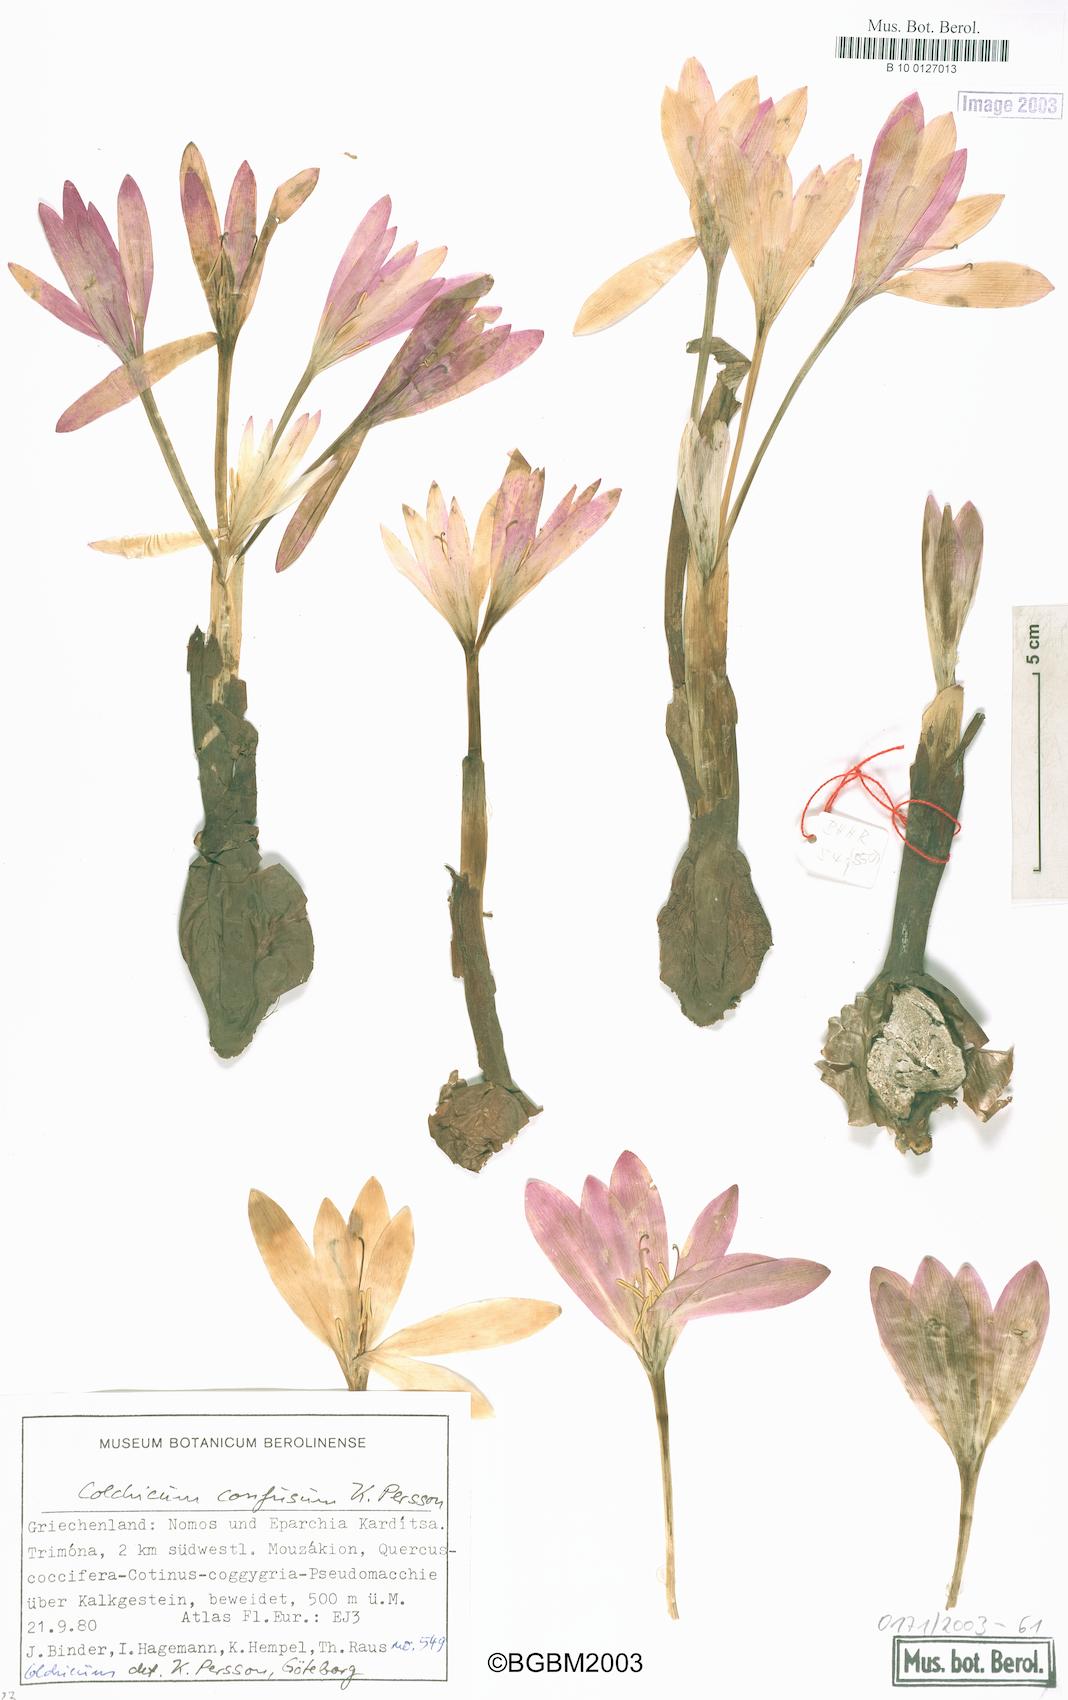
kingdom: Plantae
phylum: Tracheophyta
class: Liliopsida
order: Liliales
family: Colchicaceae
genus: Colchicum
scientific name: Colchicum confusum
